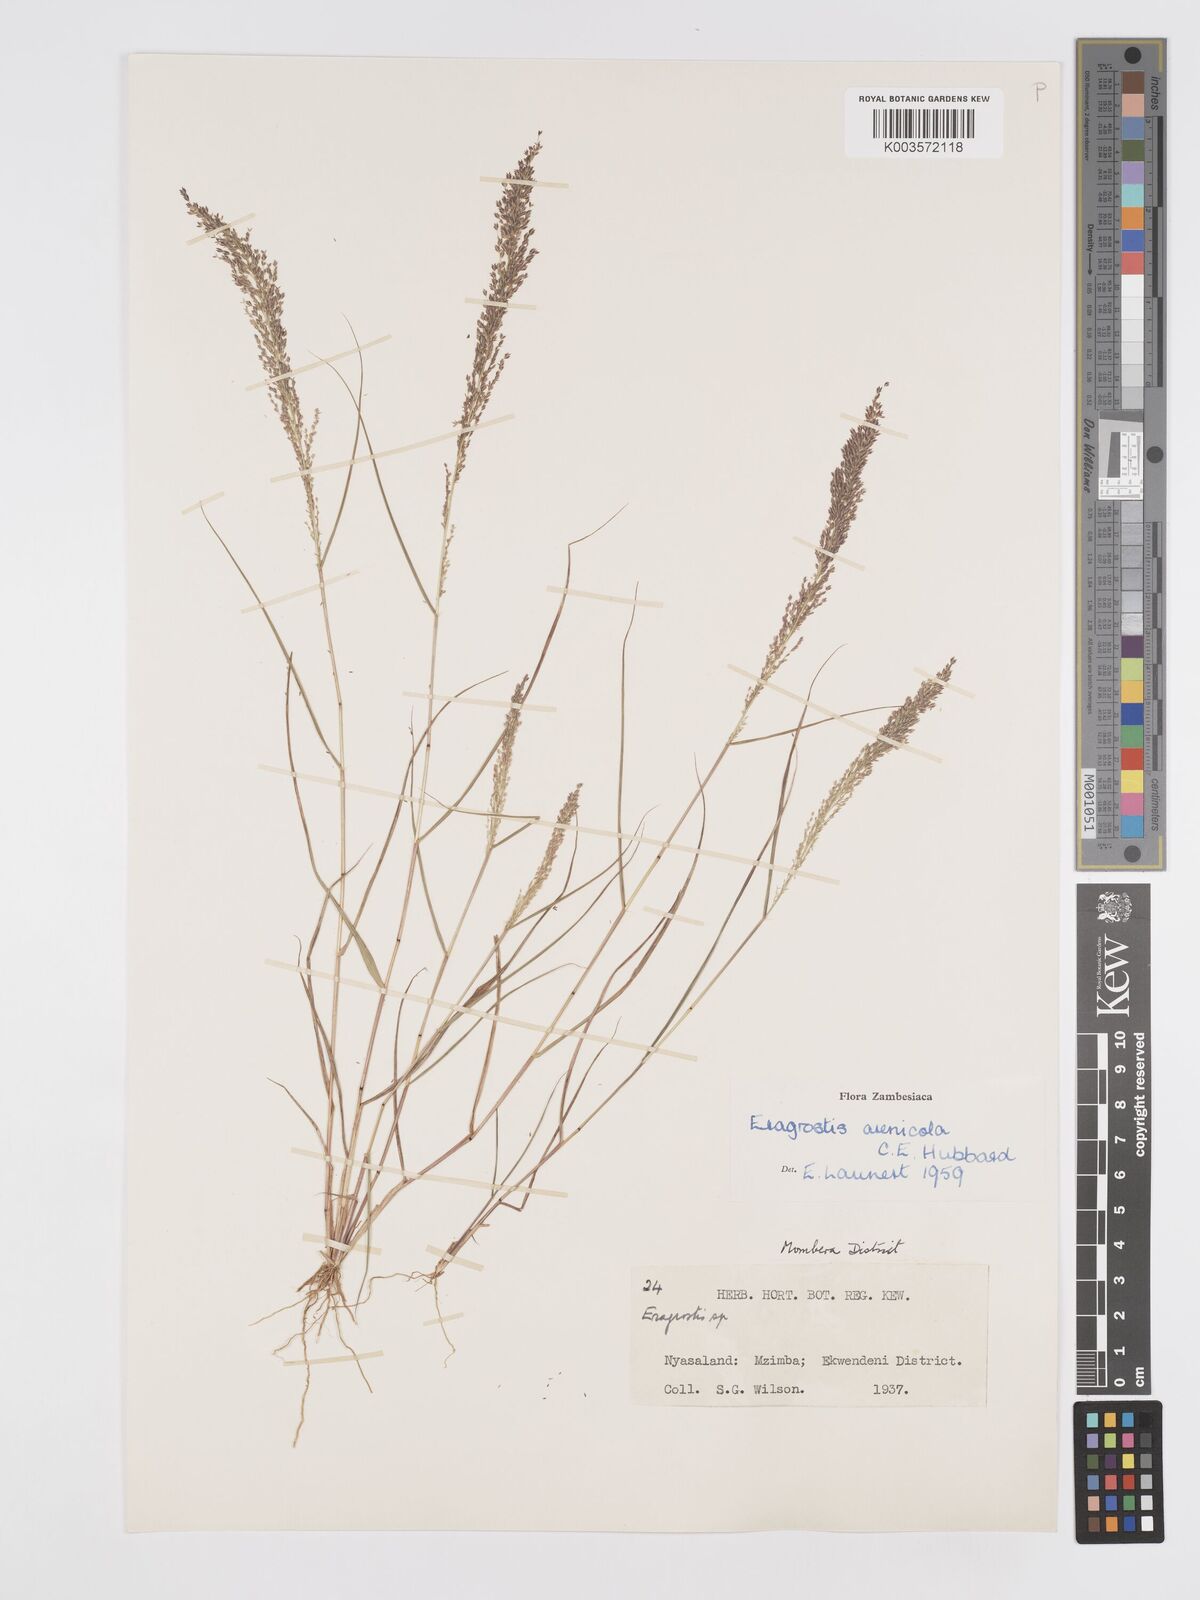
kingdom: Plantae
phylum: Tracheophyta
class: Liliopsida
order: Poales
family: Poaceae
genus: Eragrostis
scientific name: Eragrostis arenicola
